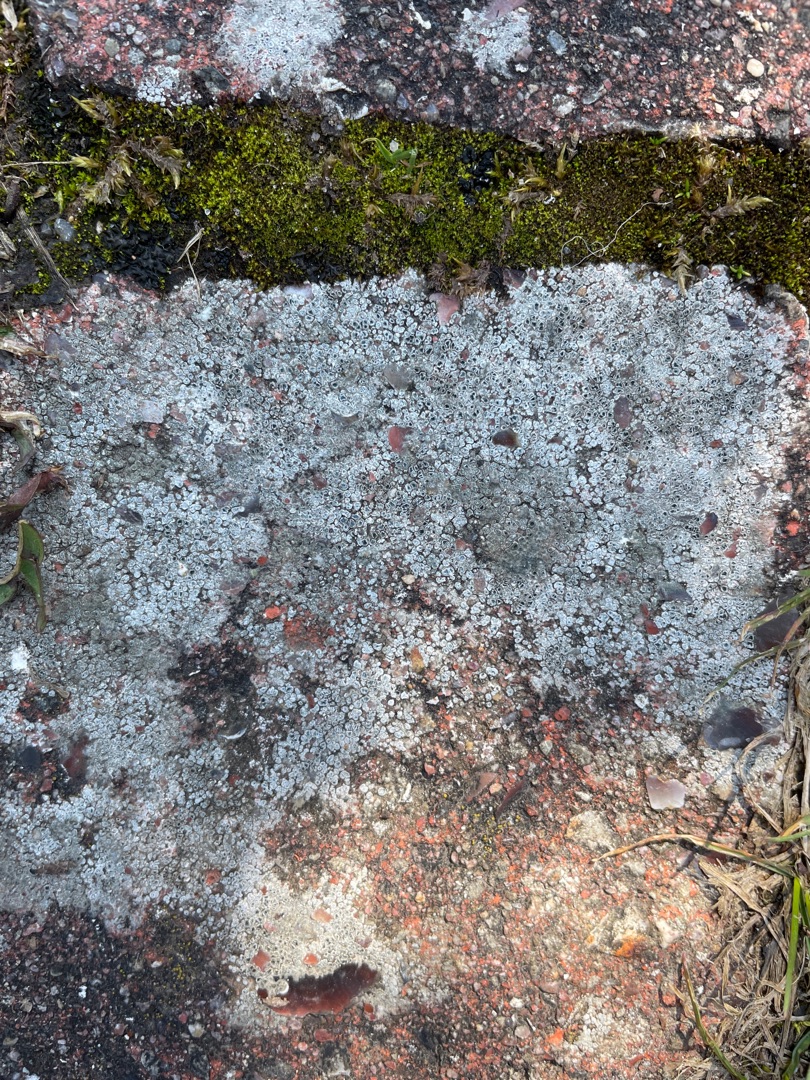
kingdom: Fungi
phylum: Ascomycota
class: Lecanoromycetes
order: Pertusariales
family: Megasporaceae
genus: Circinaria
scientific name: Circinaria contorta
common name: Indviklet hulskivelav
